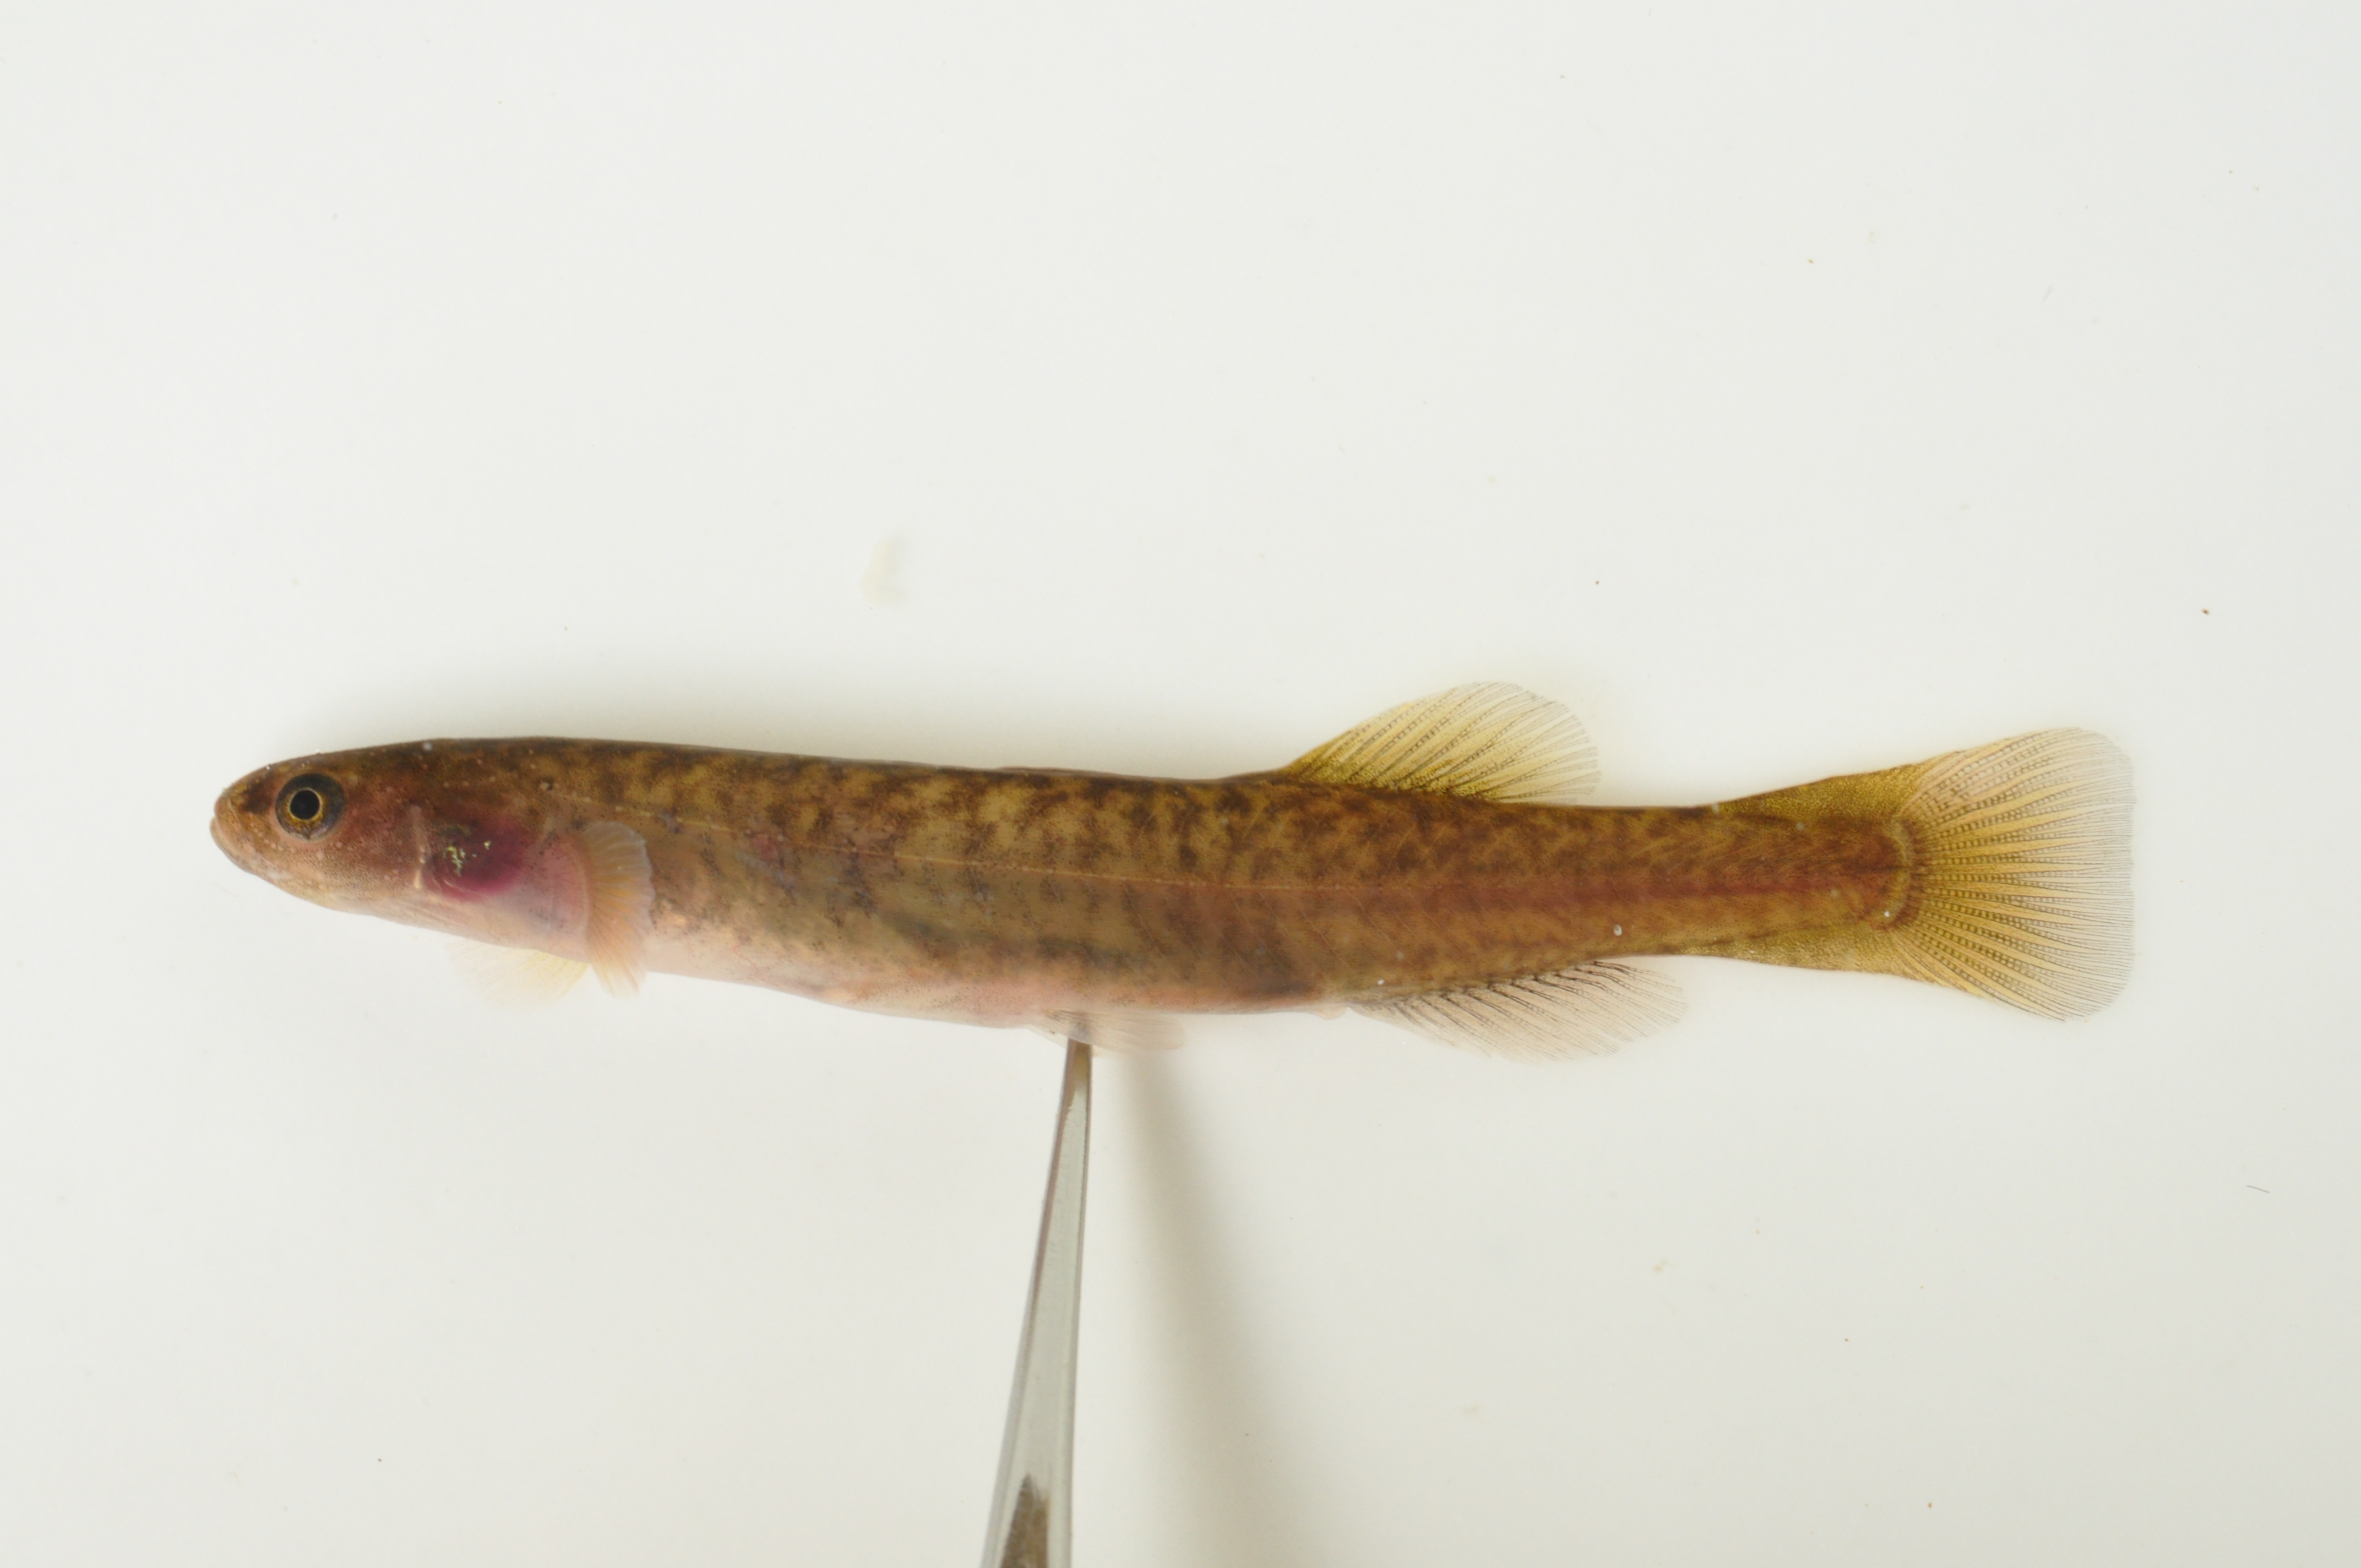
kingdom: Animalia
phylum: Chordata
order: Osmeriformes
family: Galaxiidae
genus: Galaxias
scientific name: Galaxias zebratus
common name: Cape galaxias
